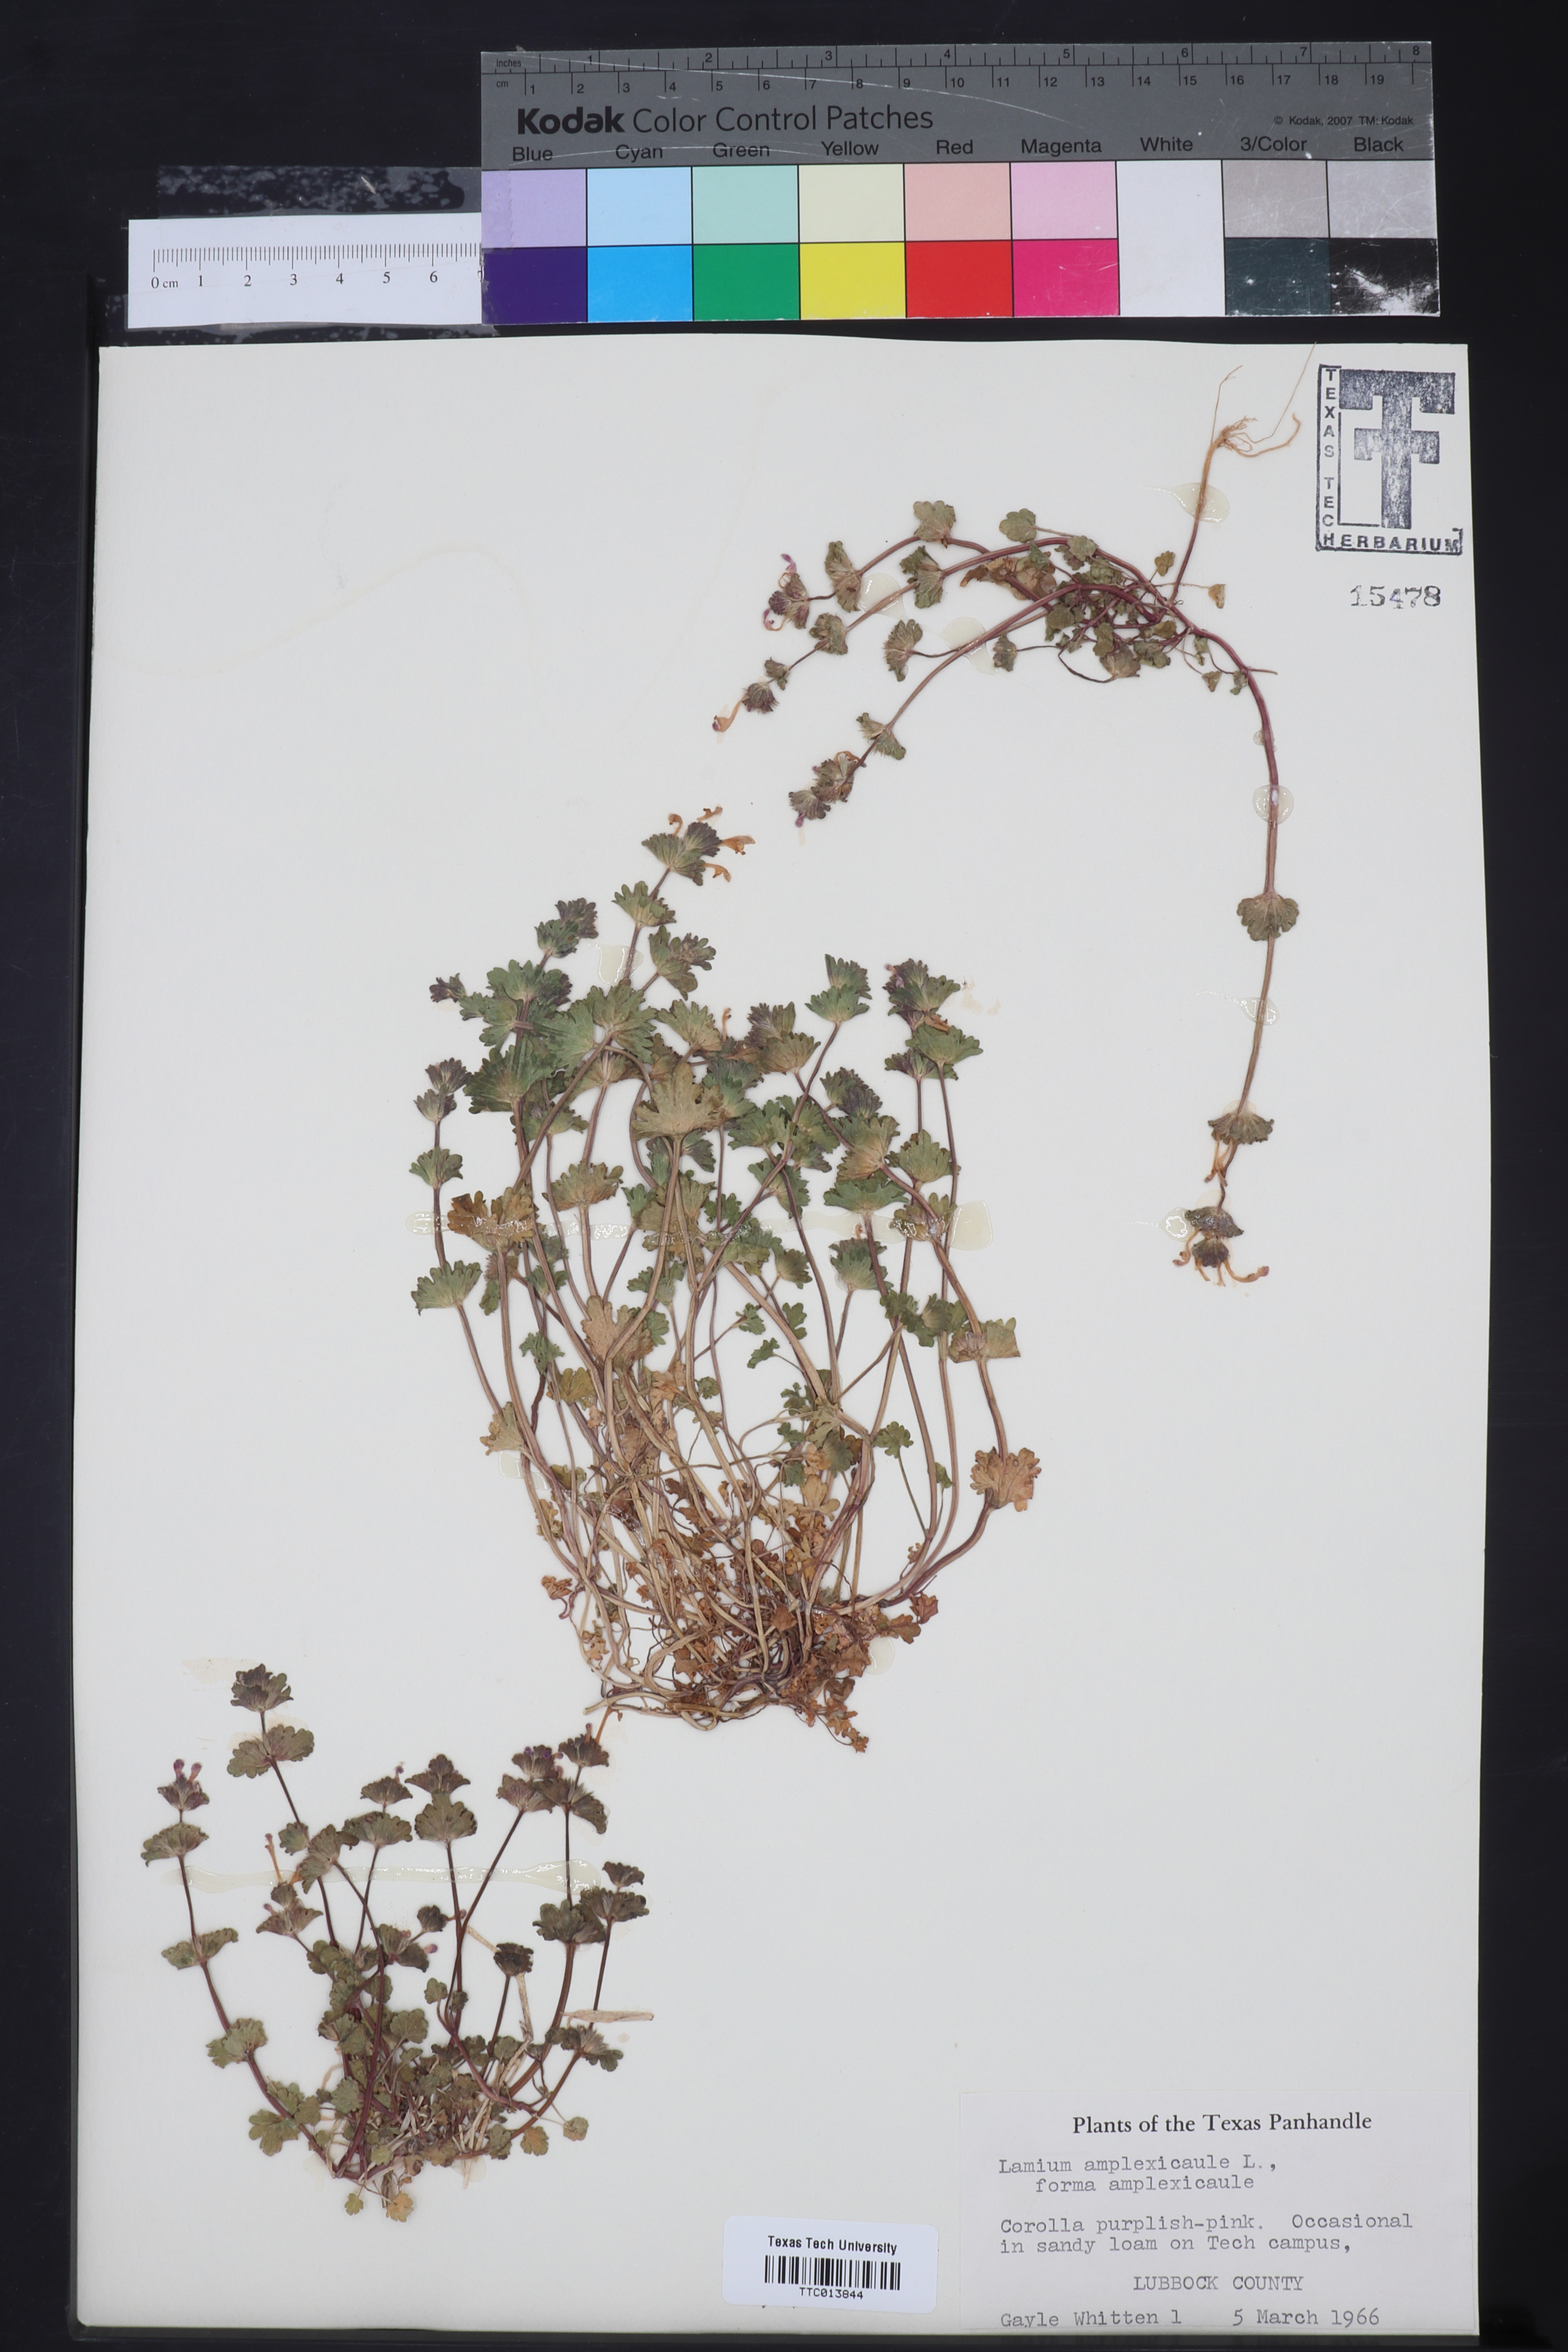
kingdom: Plantae
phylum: Tracheophyta
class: Magnoliopsida
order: Lamiales
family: Lamiaceae
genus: Lamium
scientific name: Lamium amplexicaule
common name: Henbit dead-nettle
